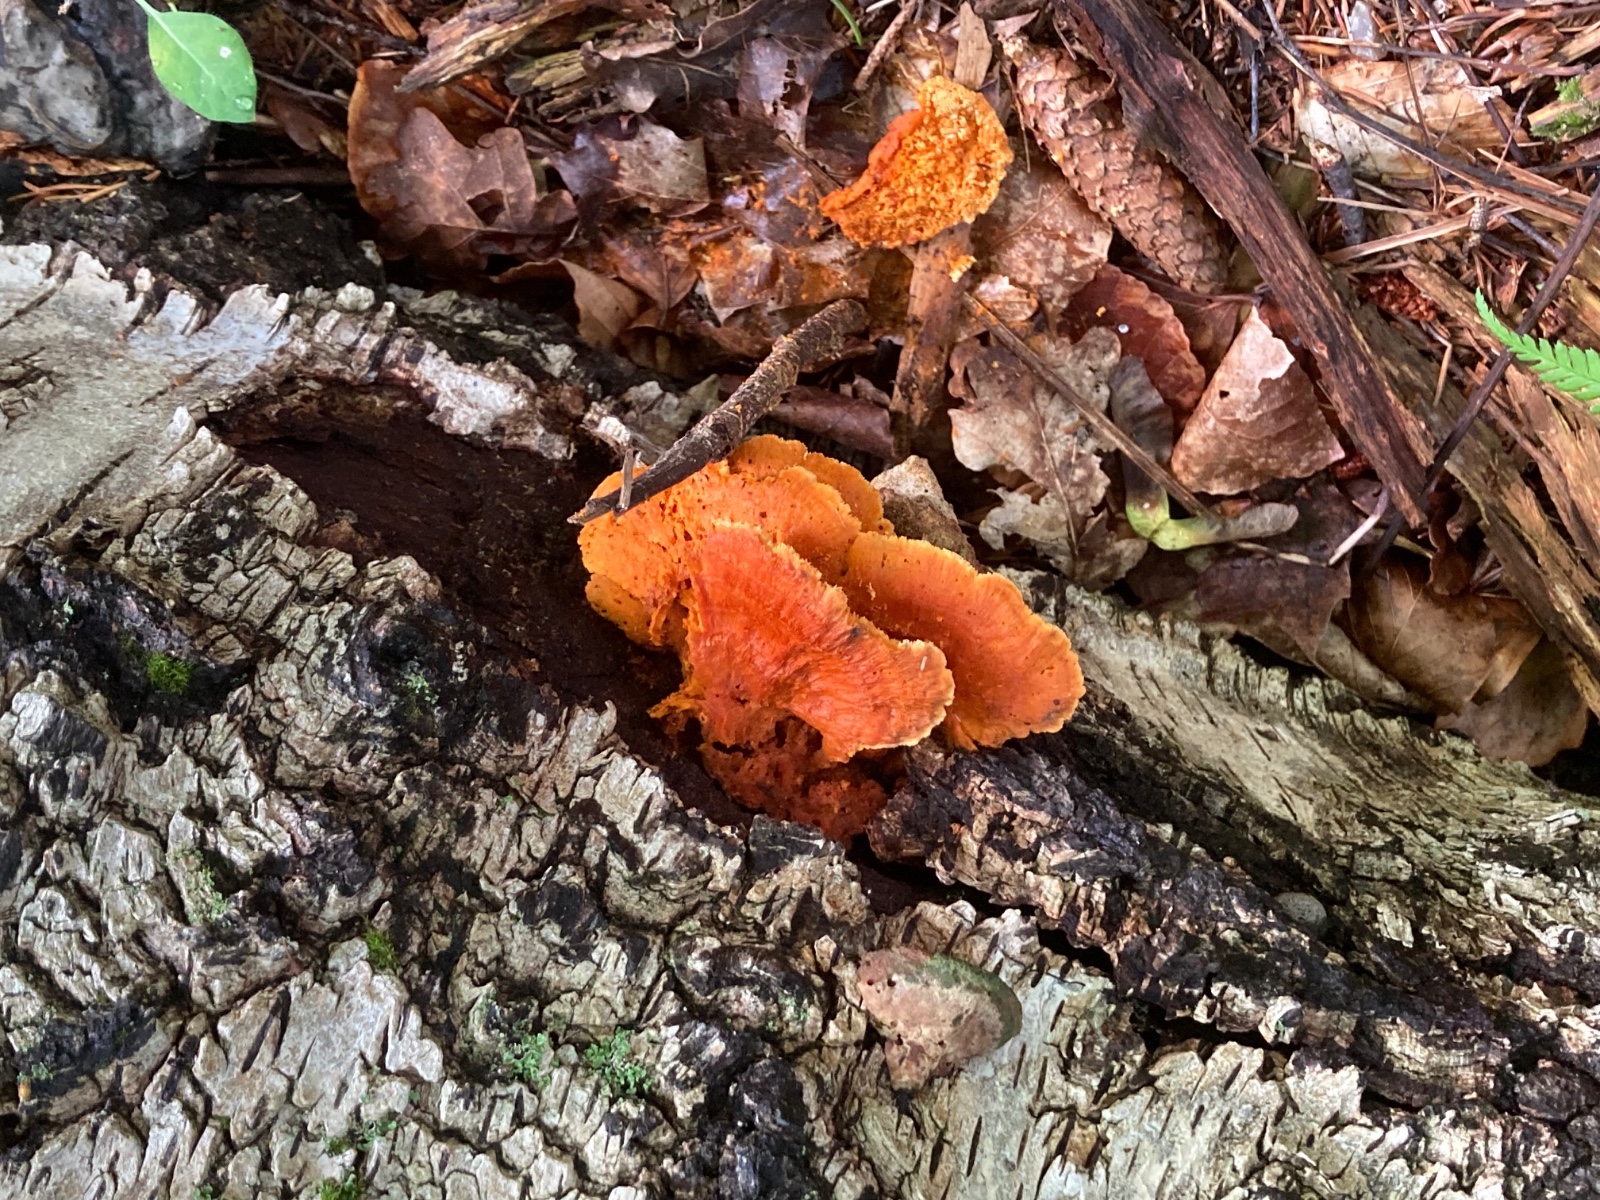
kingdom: Fungi
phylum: Basidiomycota
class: Agaricomycetes
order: Polyporales
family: Pycnoporellaceae
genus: Pycnoporellus
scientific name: Pycnoporellus fulgens
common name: flammeporesvamp
